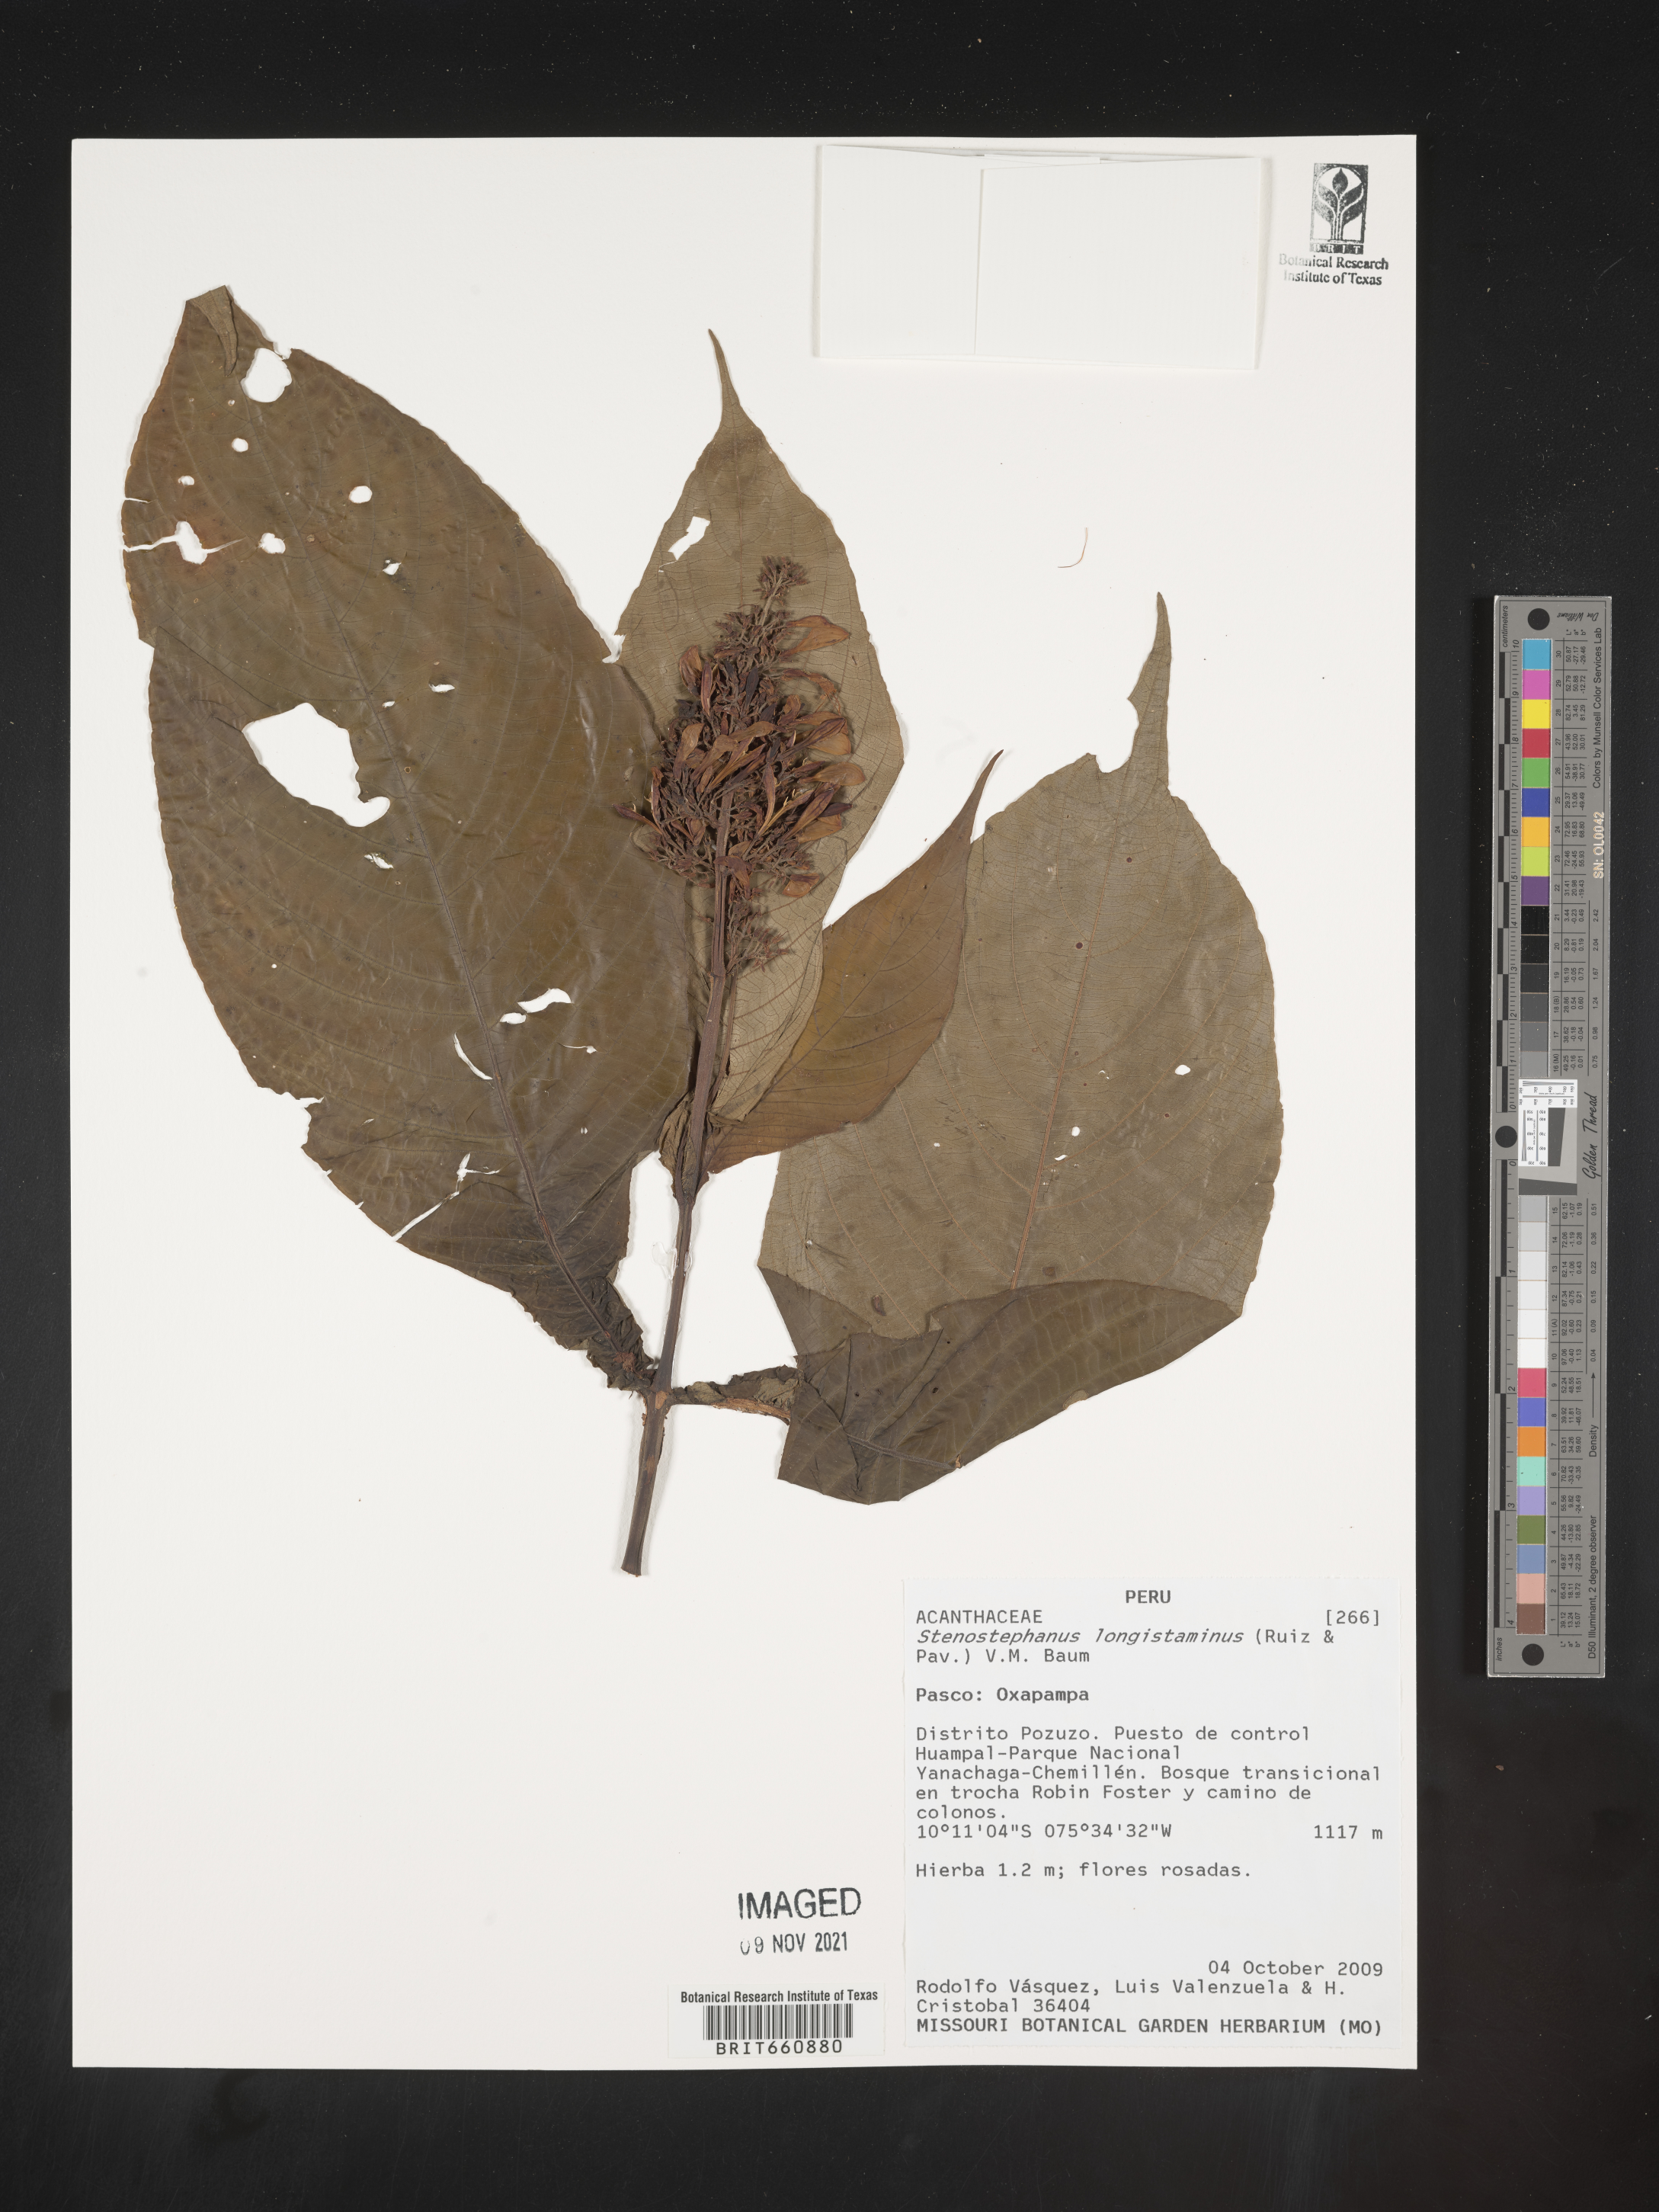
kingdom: Plantae
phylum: Tracheophyta
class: Magnoliopsida
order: Lamiales
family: Acanthaceae
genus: Stenostephanus
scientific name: Stenostephanus longistaminus
